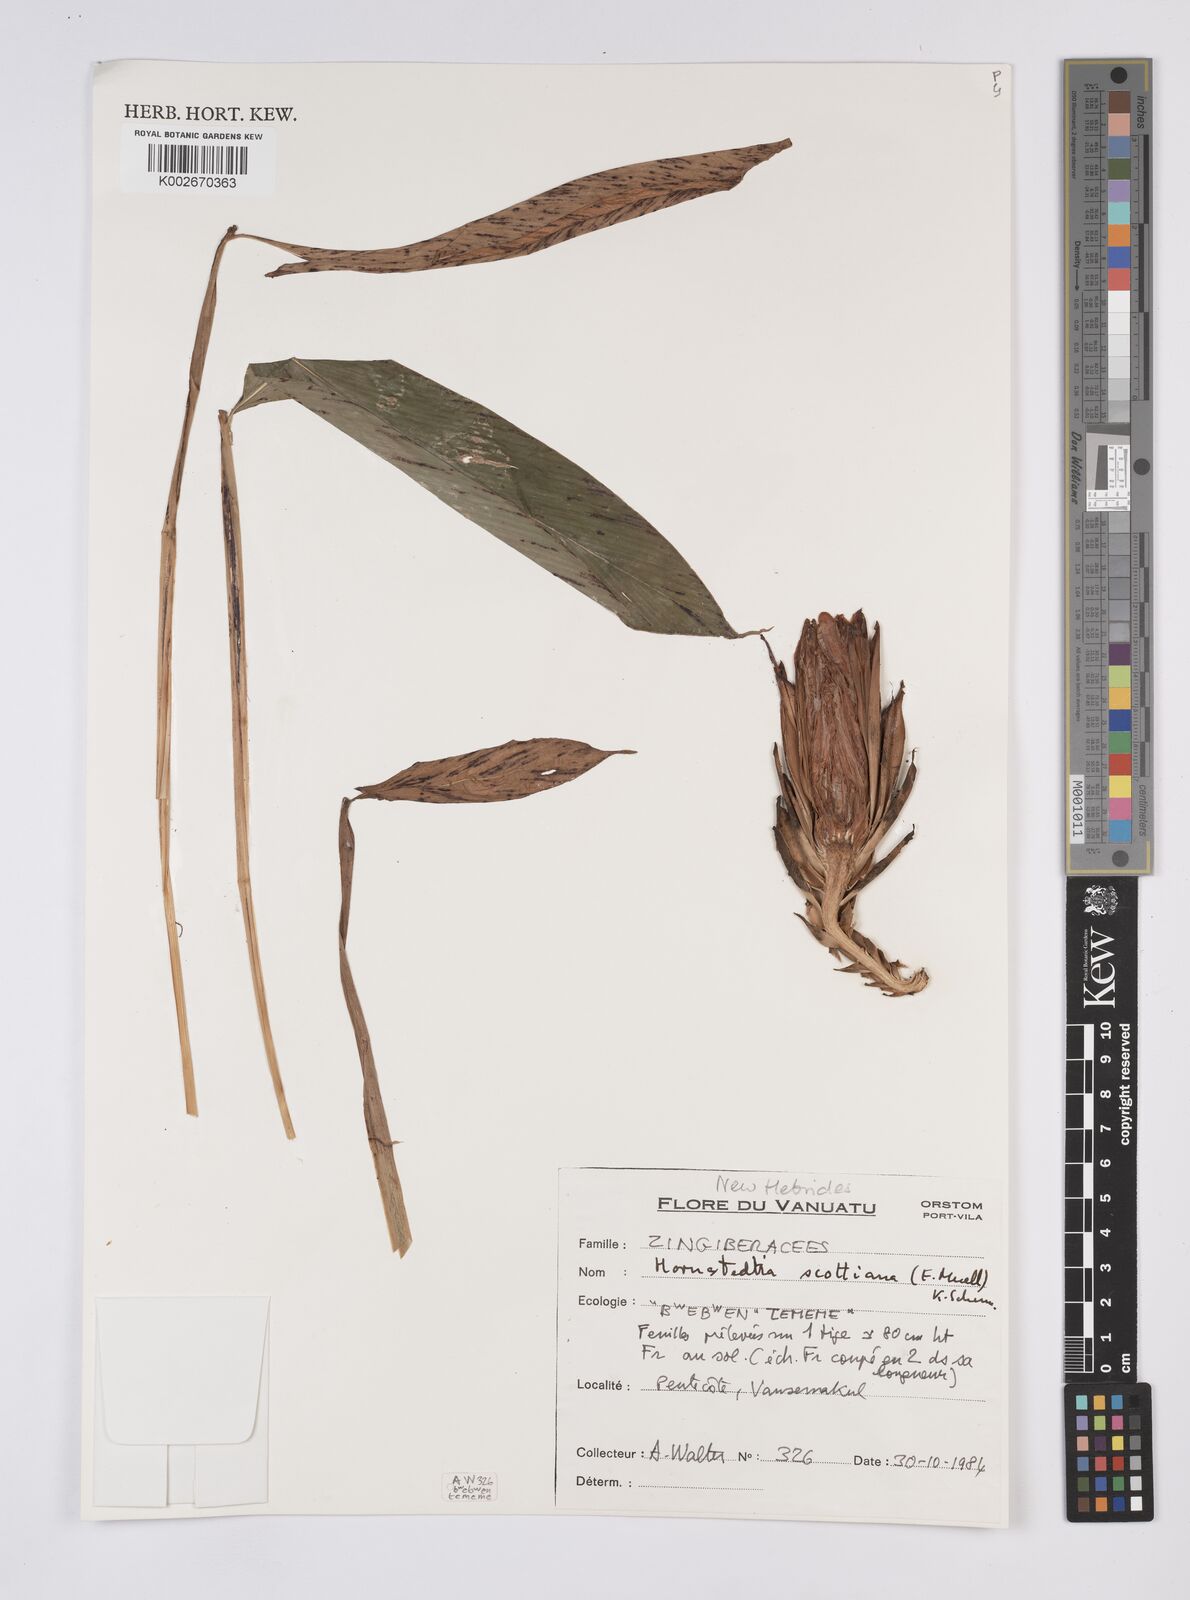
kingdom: Plantae
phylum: Tracheophyta
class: Liliopsida
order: Zingiberales
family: Zingiberaceae
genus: Hornstedtia
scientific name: Hornstedtia scottiana
